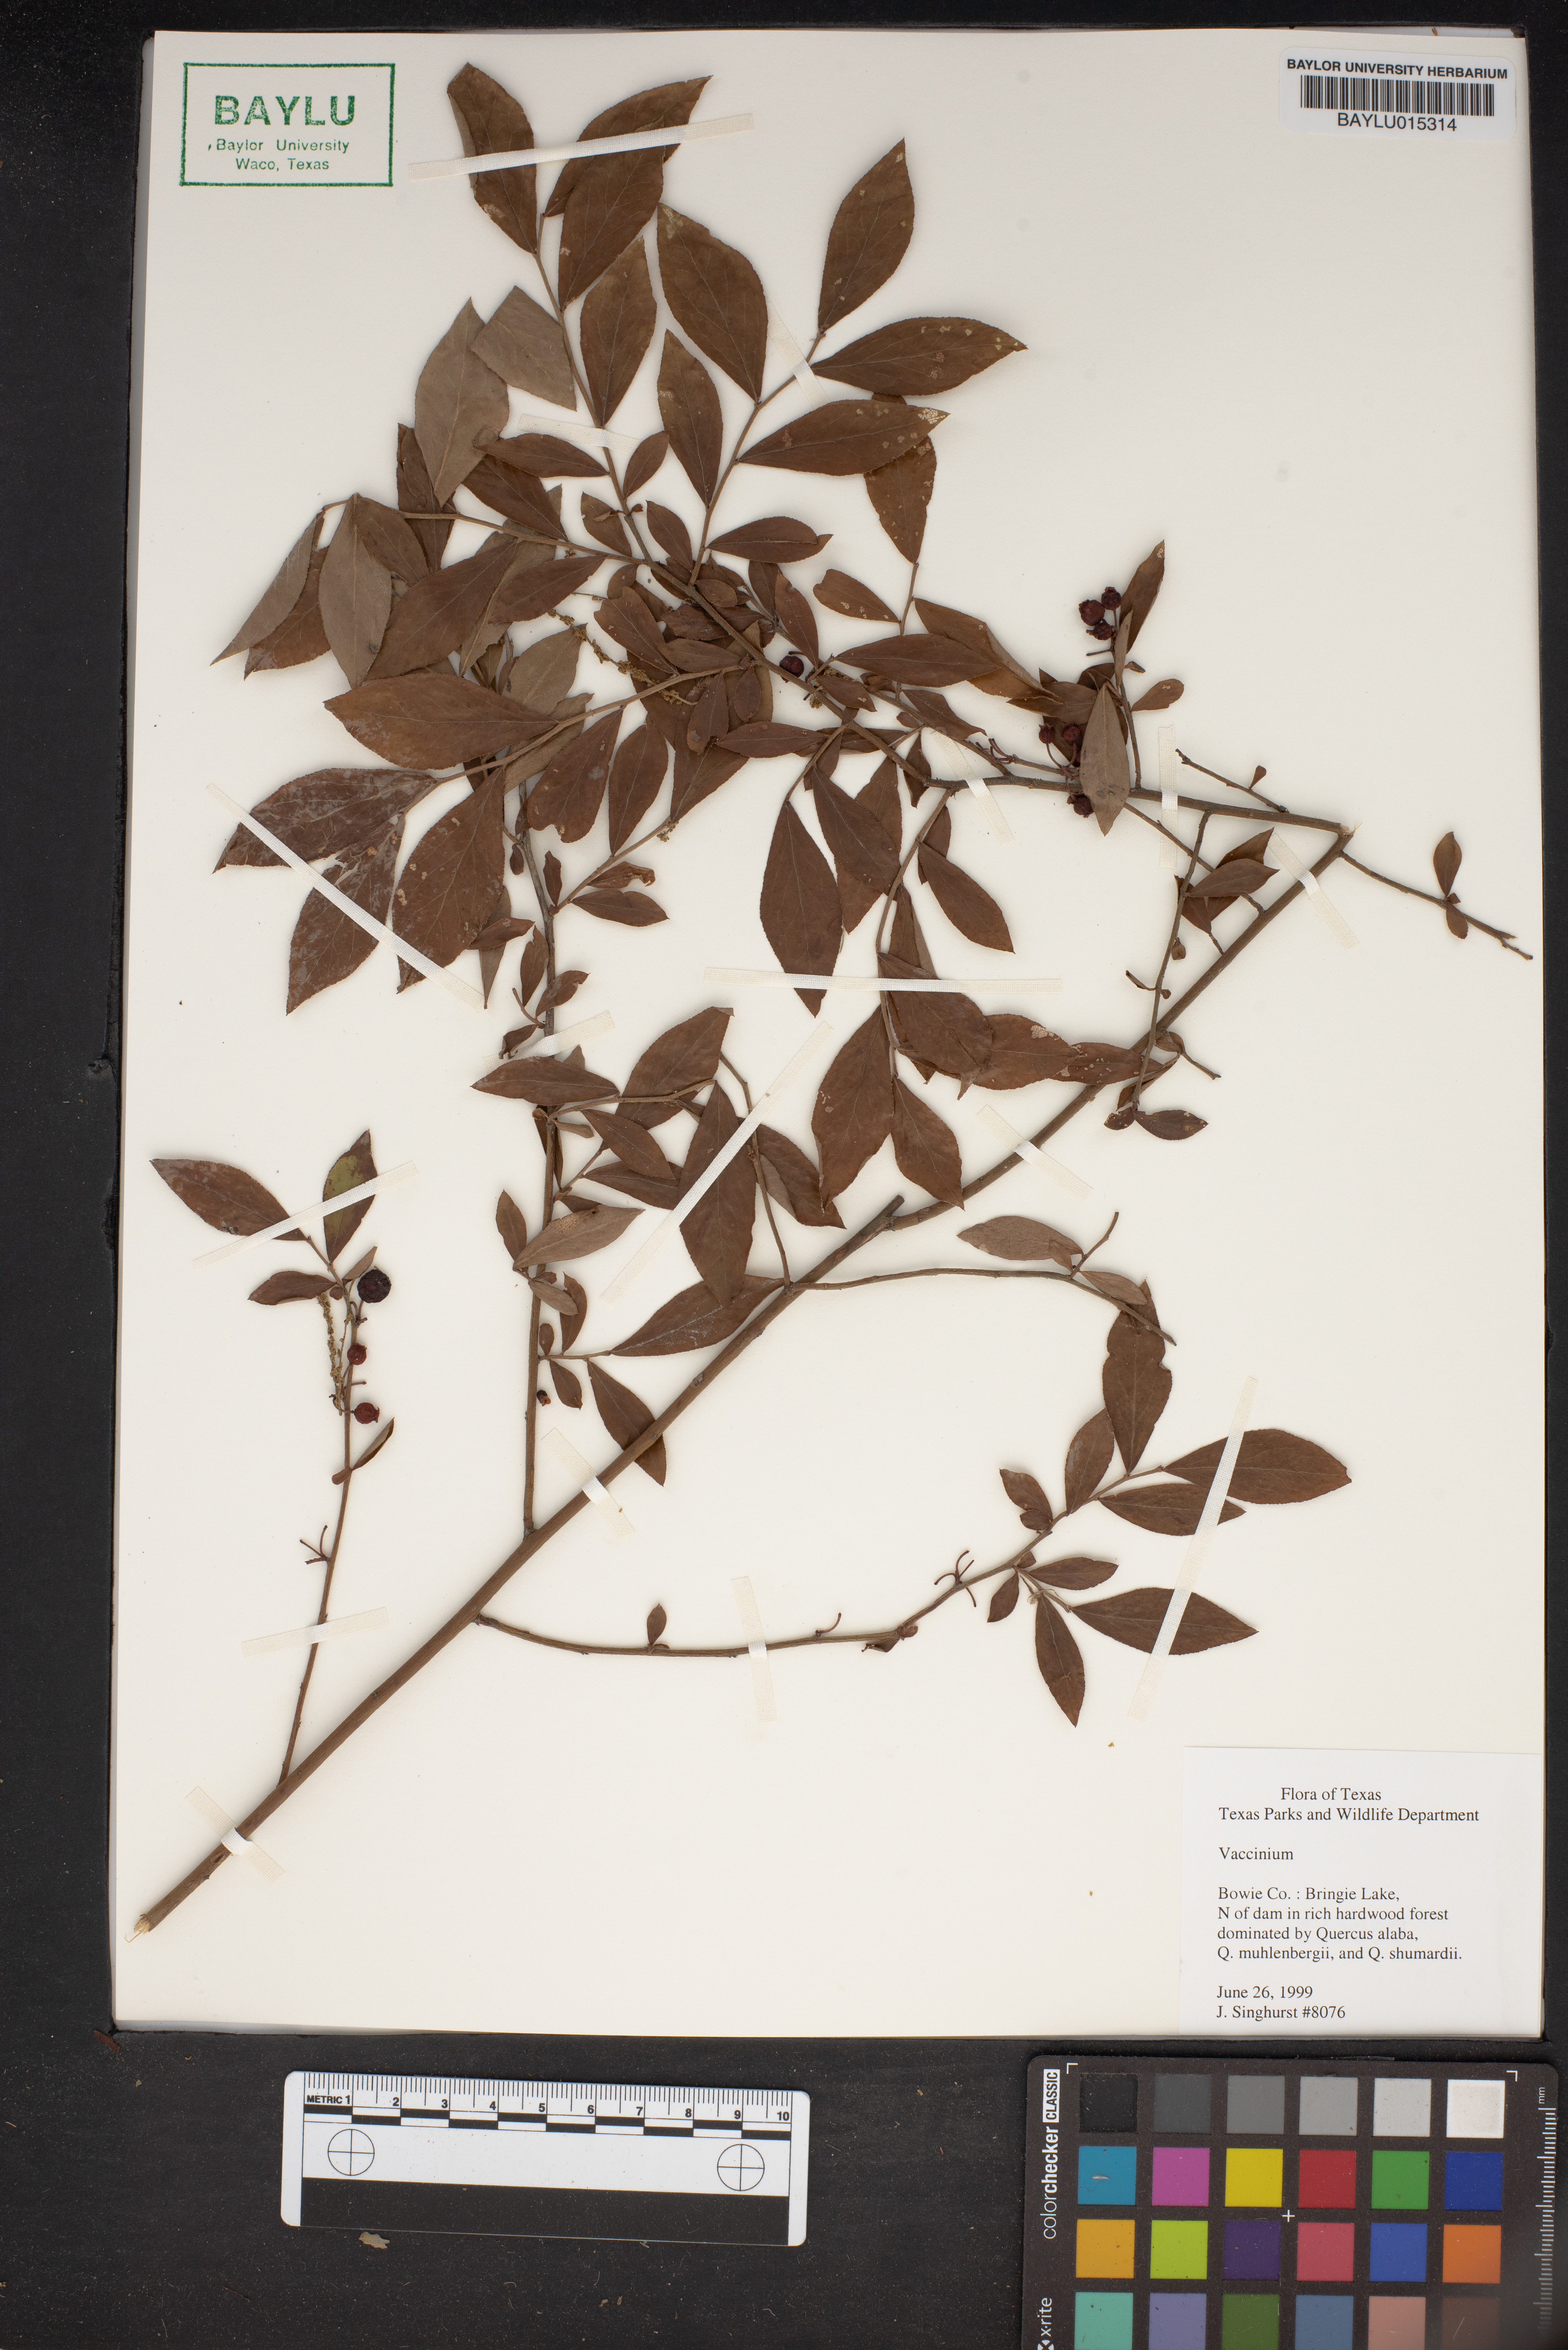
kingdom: Plantae
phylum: Tracheophyta
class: Magnoliopsida
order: Ericales
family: Ericaceae
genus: Vaccinium
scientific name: Vaccinium
